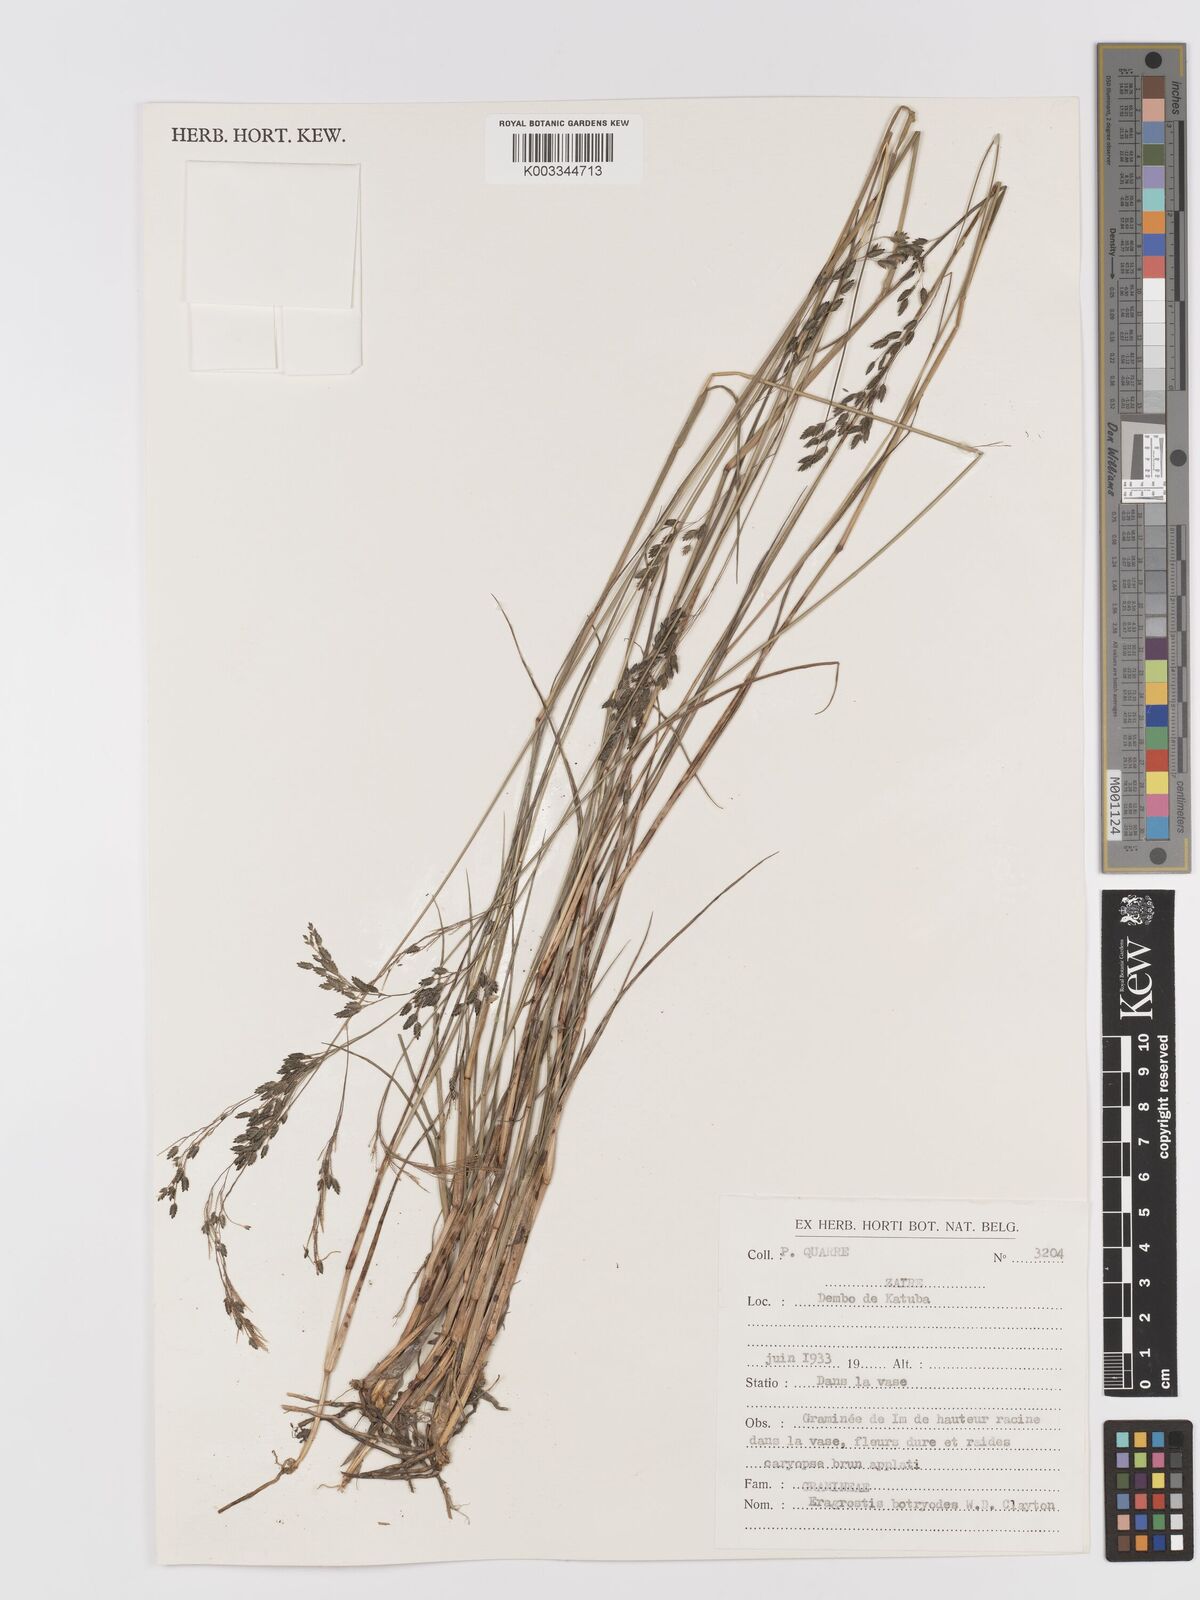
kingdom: Plantae
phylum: Tracheophyta
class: Liliopsida
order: Poales
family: Poaceae
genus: Eragrostis
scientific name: Eragrostis botryodes
